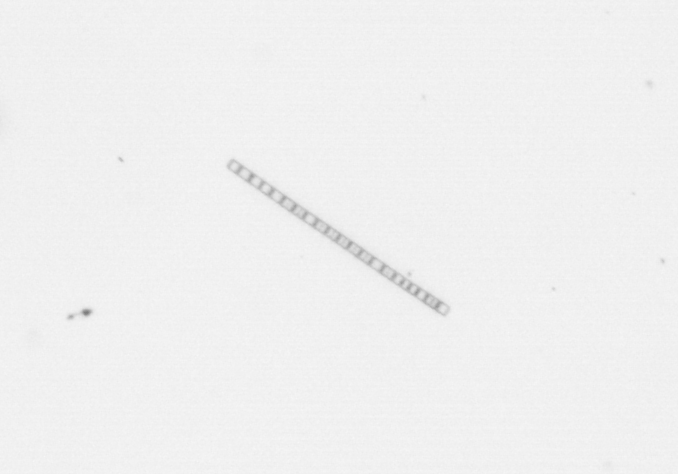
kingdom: Chromista
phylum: Ochrophyta
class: Bacillariophyceae
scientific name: Bacillariophyceae
